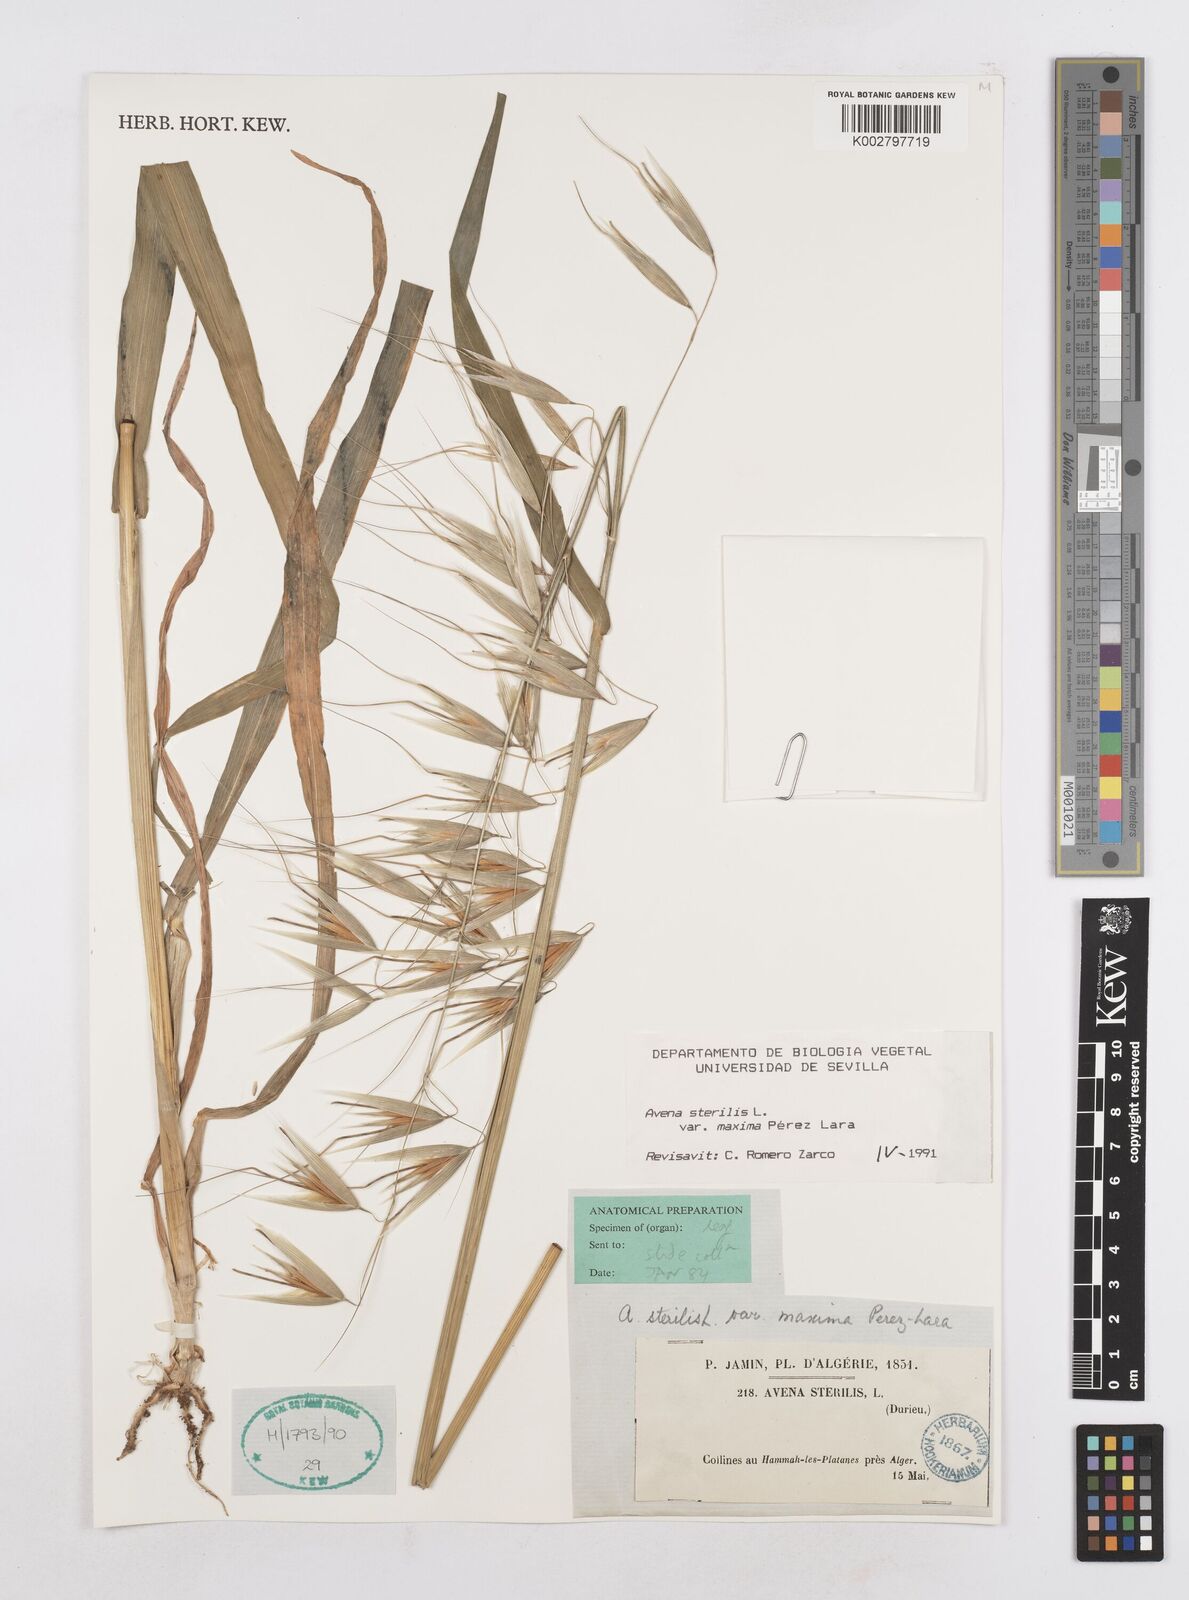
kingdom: Plantae
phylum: Tracheophyta
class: Liliopsida
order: Poales
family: Poaceae
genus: Avena
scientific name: Avena sterilis
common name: Animated oat
